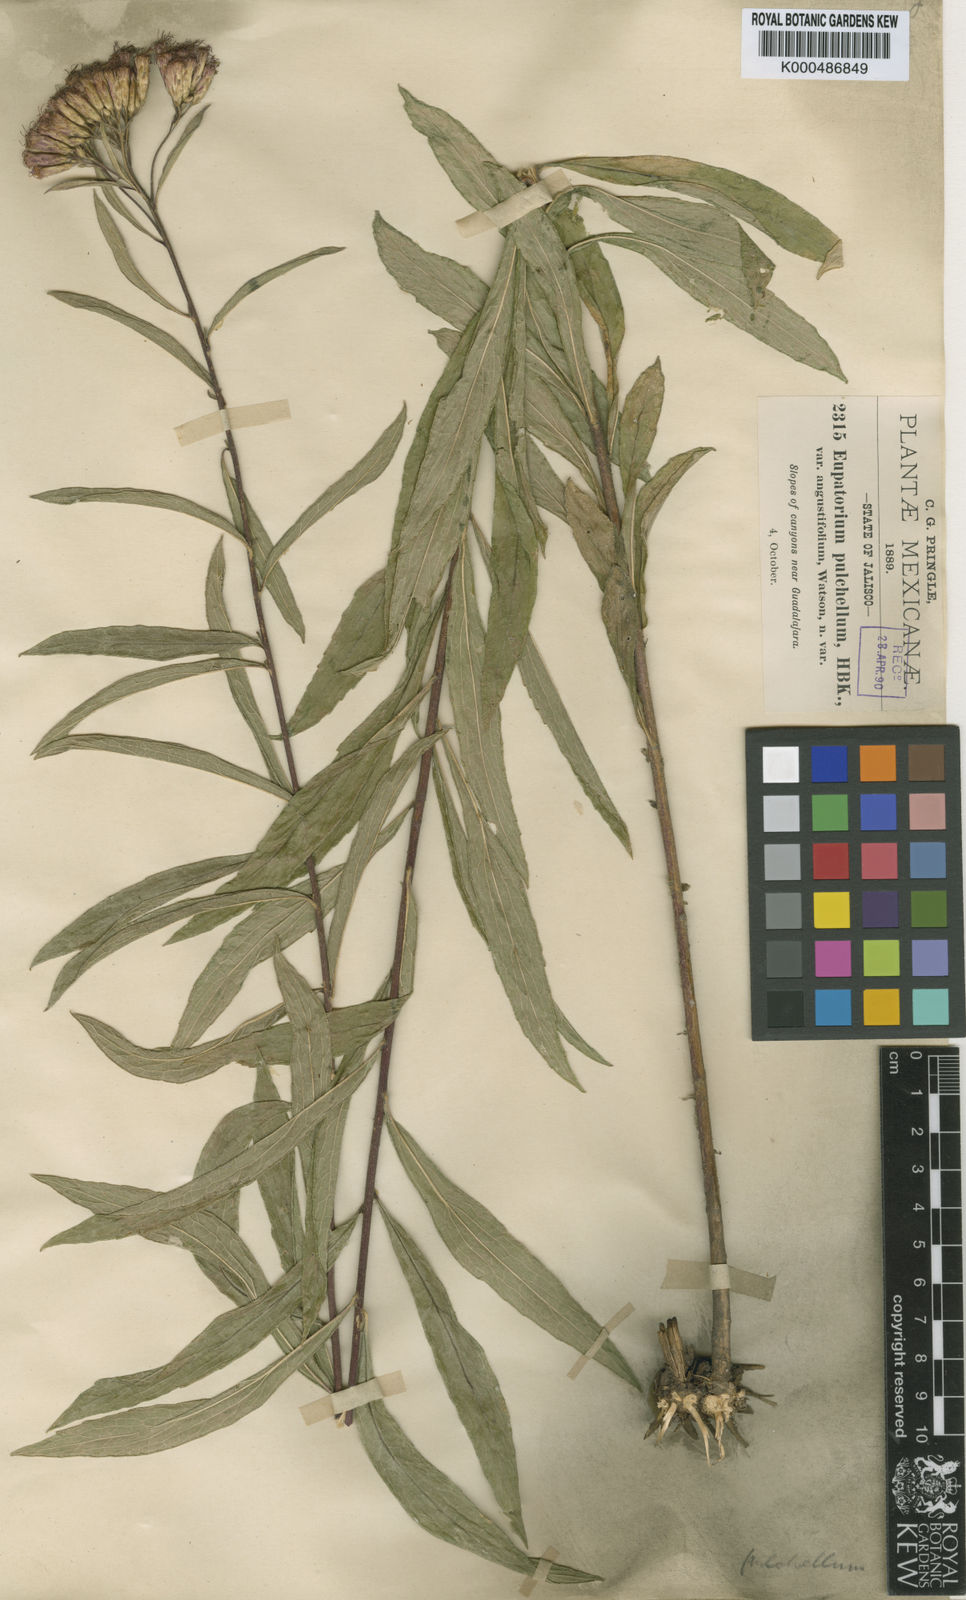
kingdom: Plantae
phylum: Tracheophyta
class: Magnoliopsida
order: Asterales
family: Asteraceae
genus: Chromolaena
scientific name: Chromolaena pulchella
